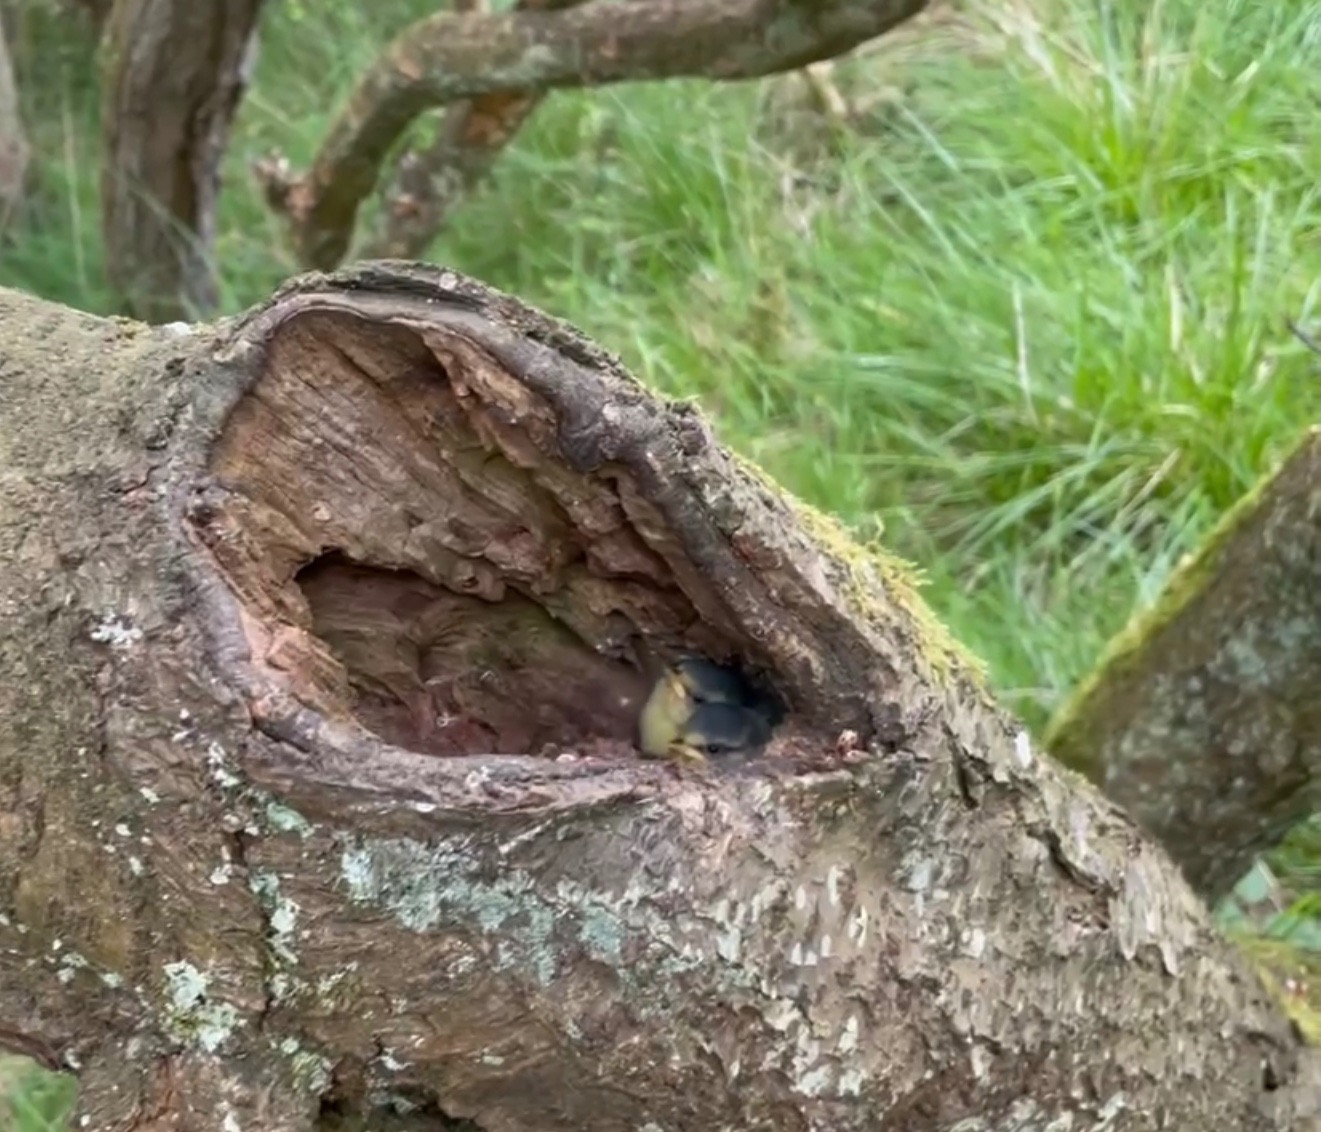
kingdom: Animalia
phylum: Chordata
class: Aves
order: Passeriformes
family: Paridae
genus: Cyanistes
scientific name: Cyanistes caeruleus
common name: Blåmejse
